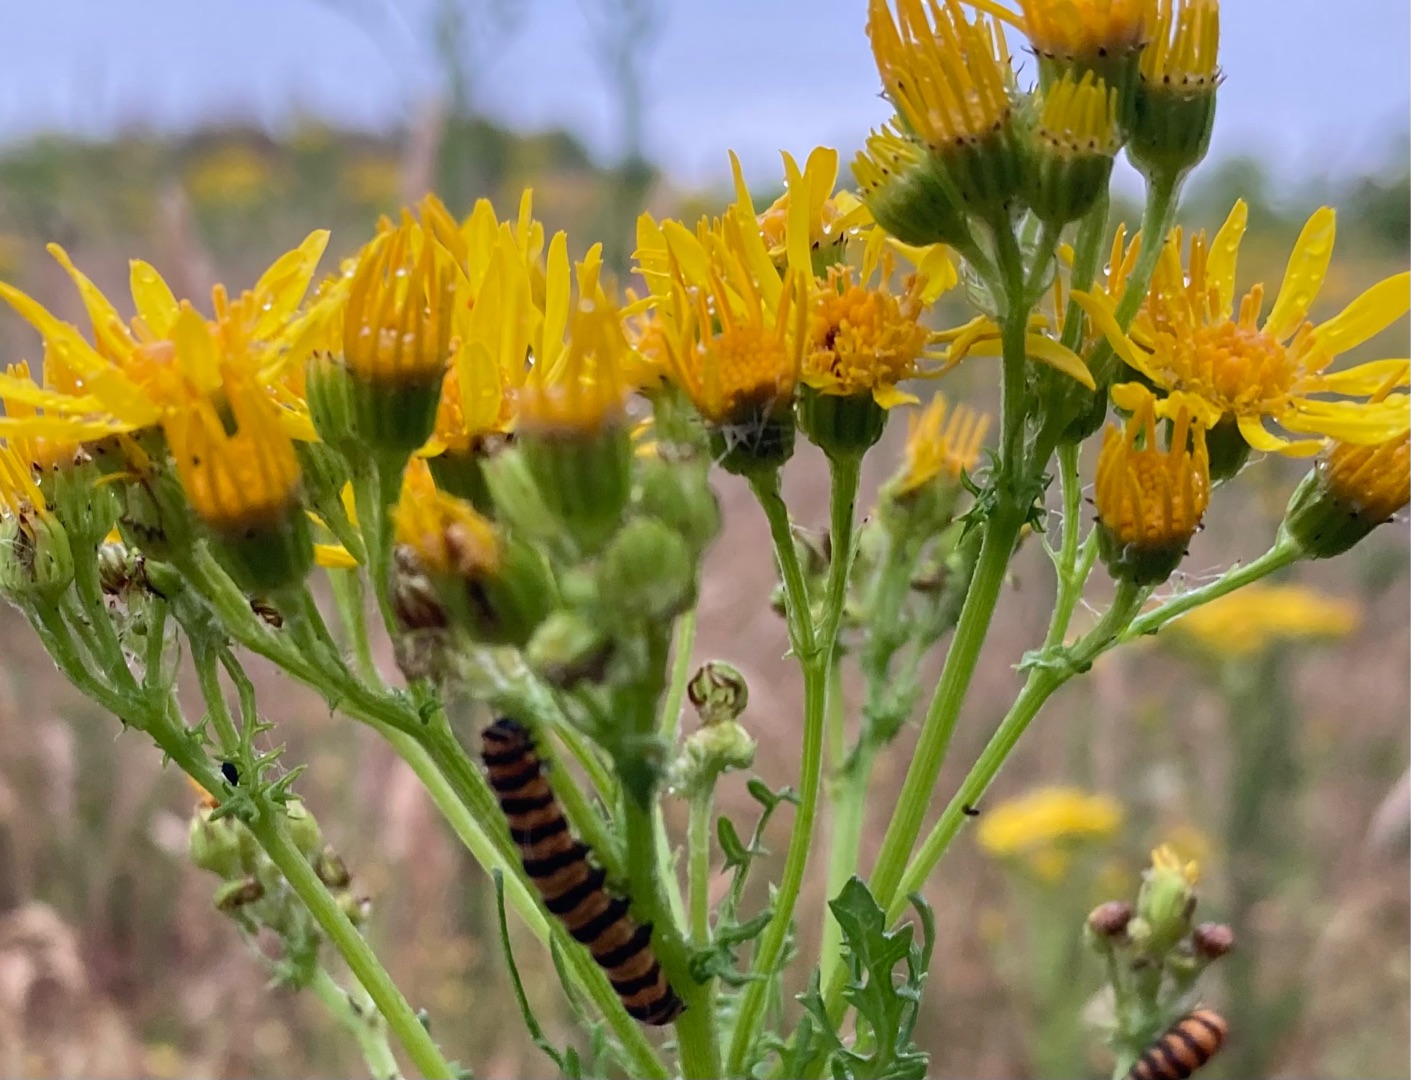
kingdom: Plantae
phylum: Tracheophyta
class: Magnoliopsida
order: Asterales
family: Asteraceae
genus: Jacobaea
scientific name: Jacobaea vulgaris
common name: Eng-brandbæger
